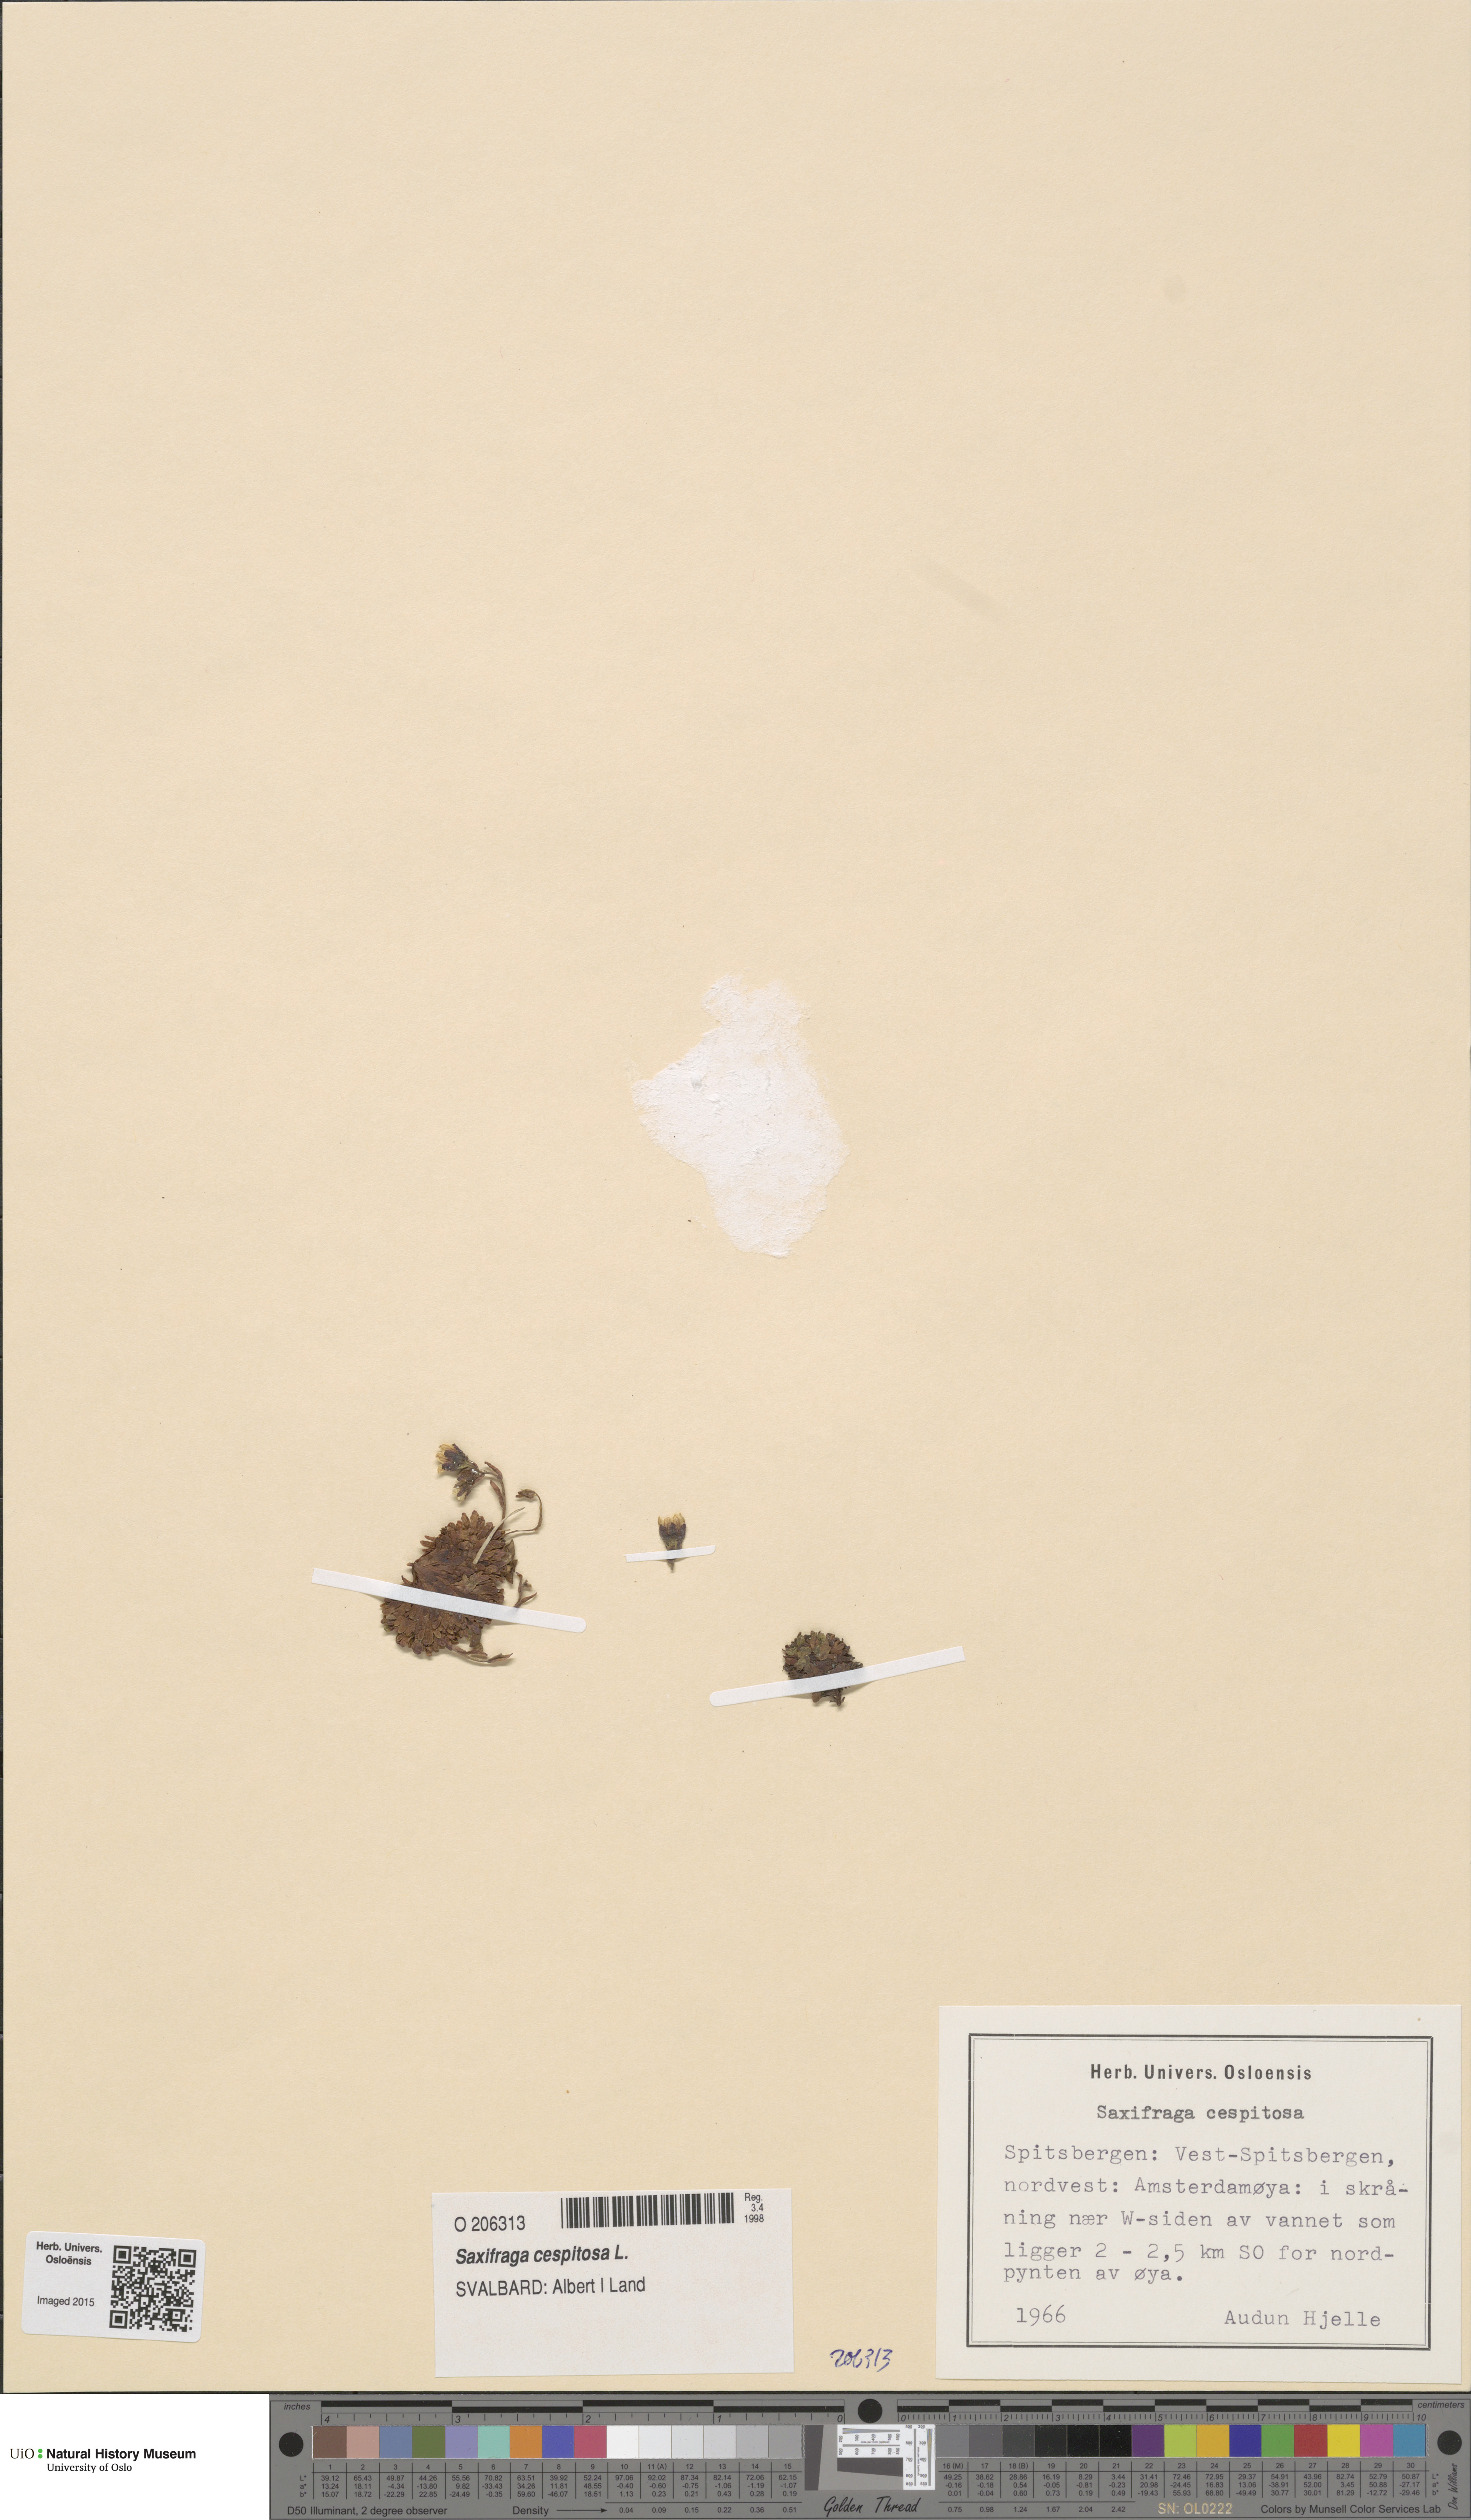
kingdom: Plantae
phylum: Tracheophyta
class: Magnoliopsida
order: Saxifragales
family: Saxifragaceae
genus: Saxifraga
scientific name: Saxifraga cespitosa
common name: Tufted saxifrage
